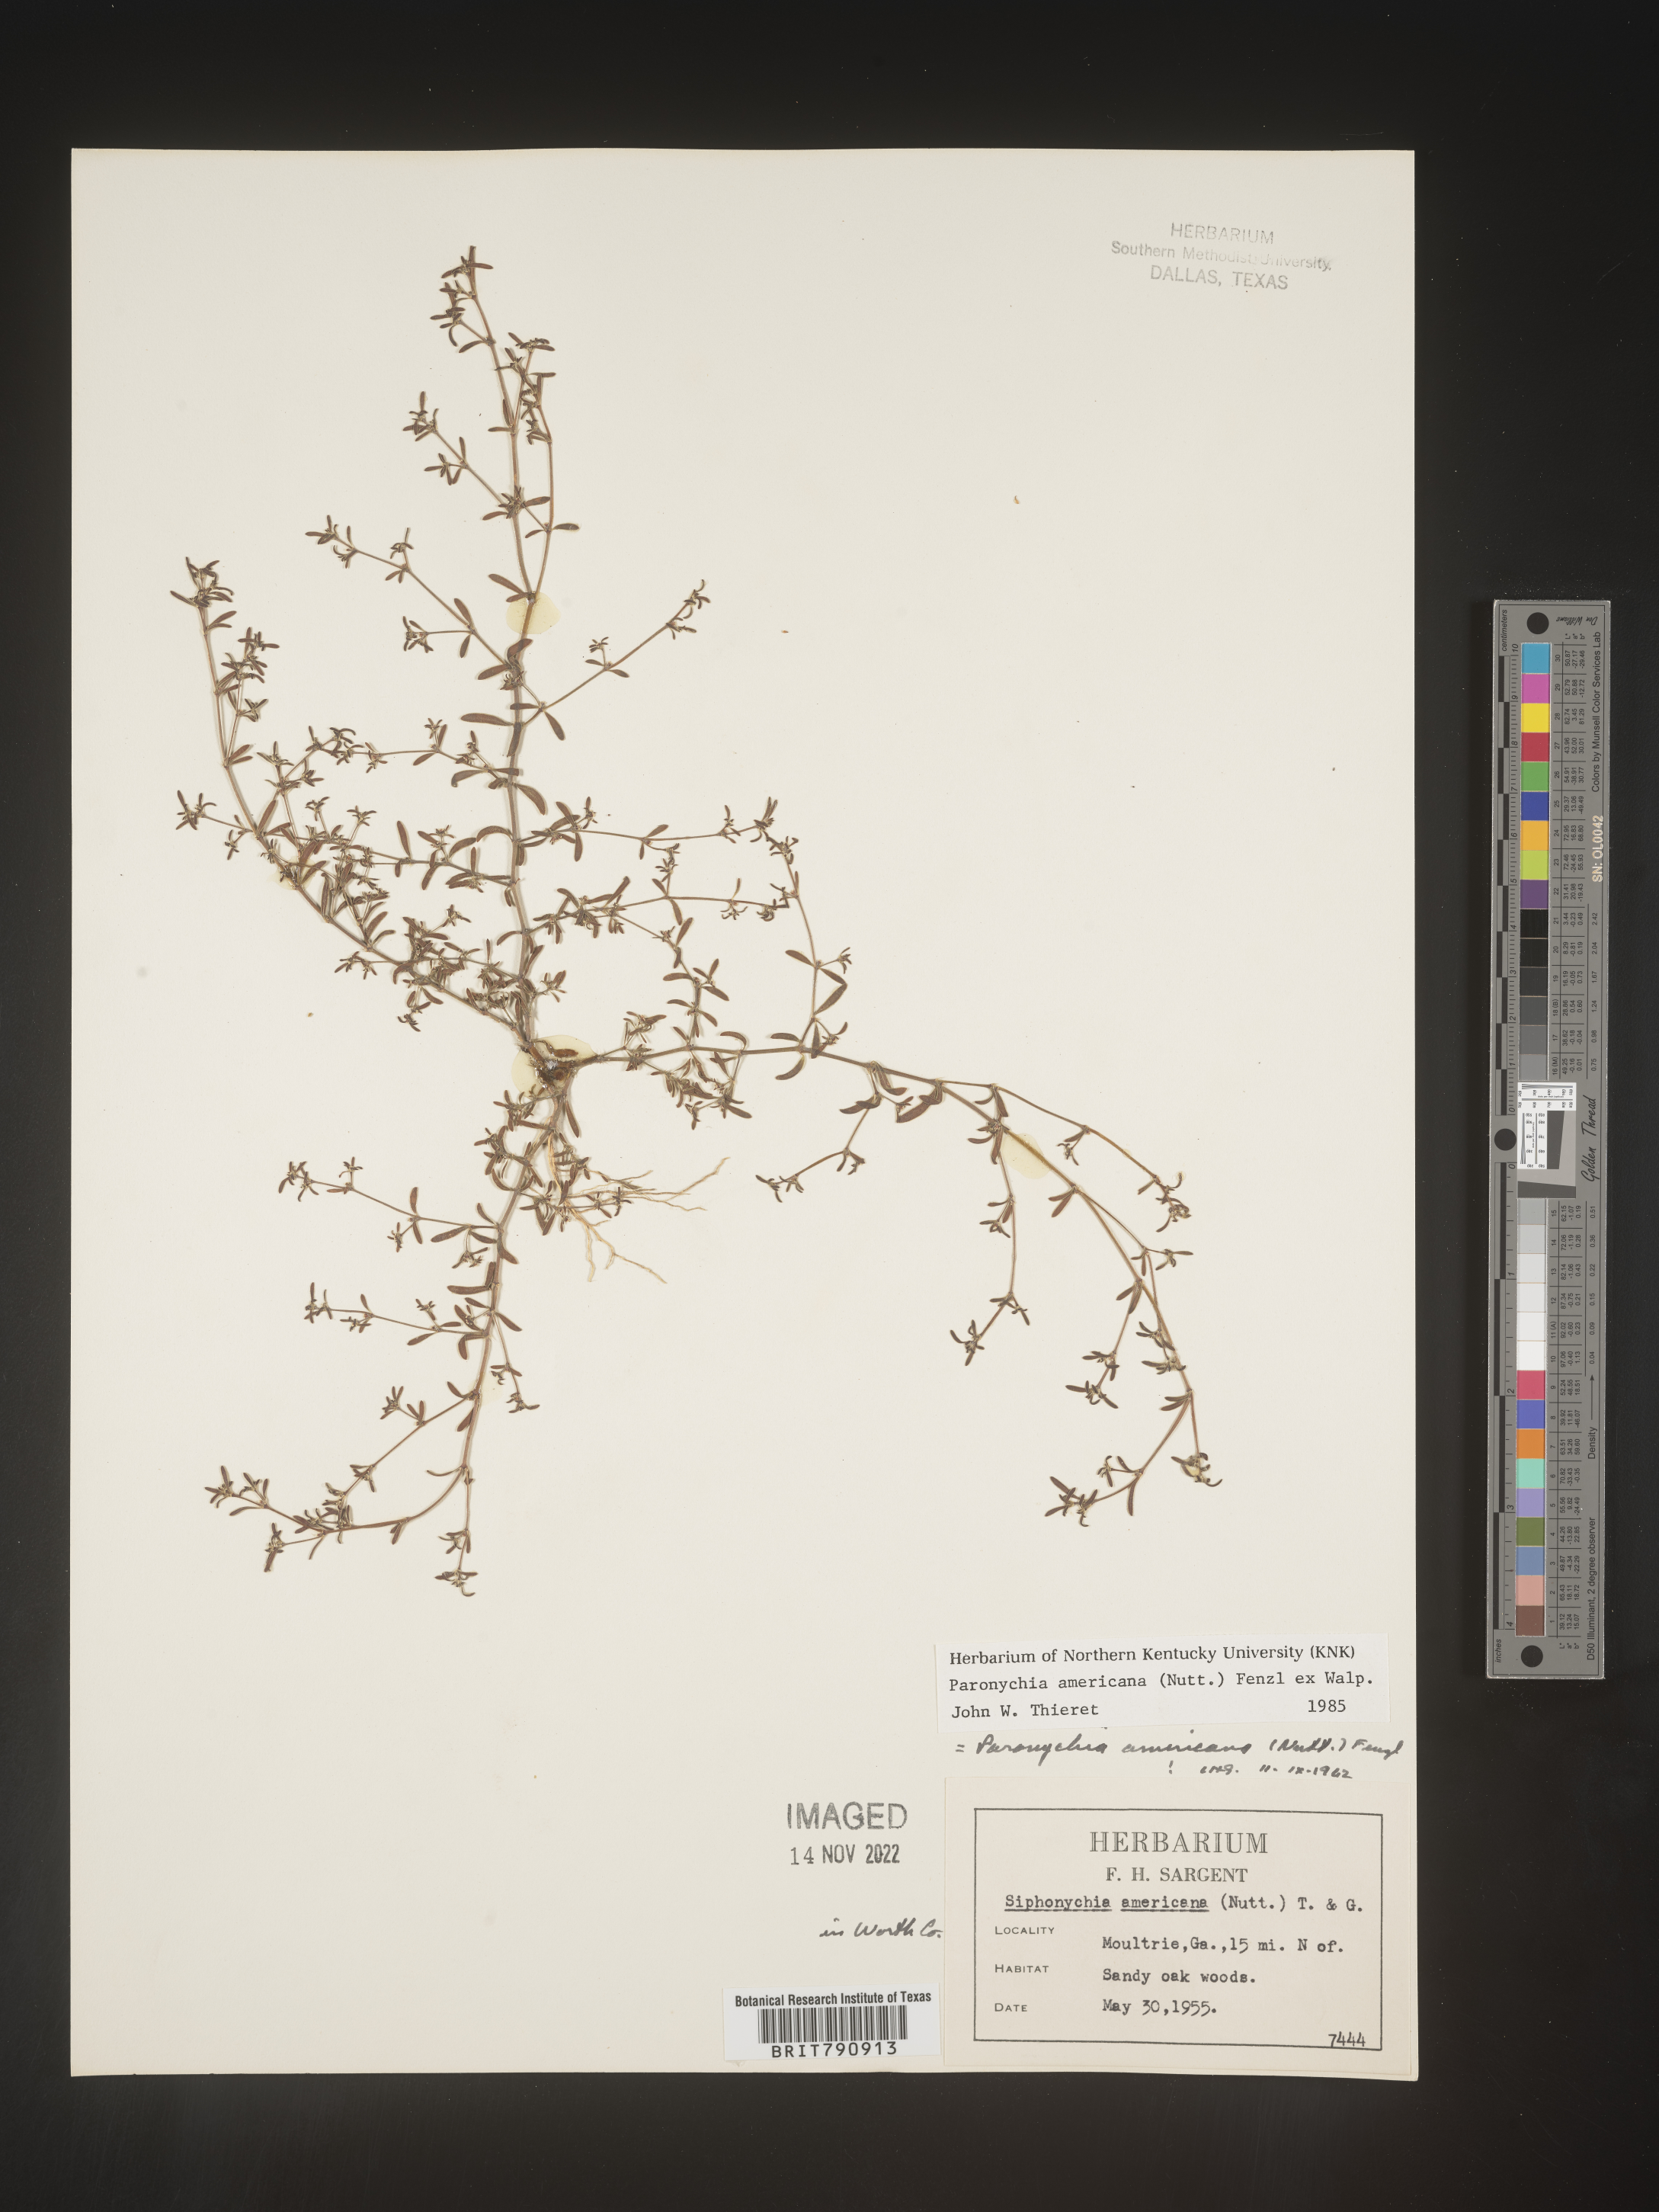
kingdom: Plantae
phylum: Tracheophyta
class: Magnoliopsida
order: Caryophyllales
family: Caryophyllaceae
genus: Paronychia
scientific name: Paronychia americana
